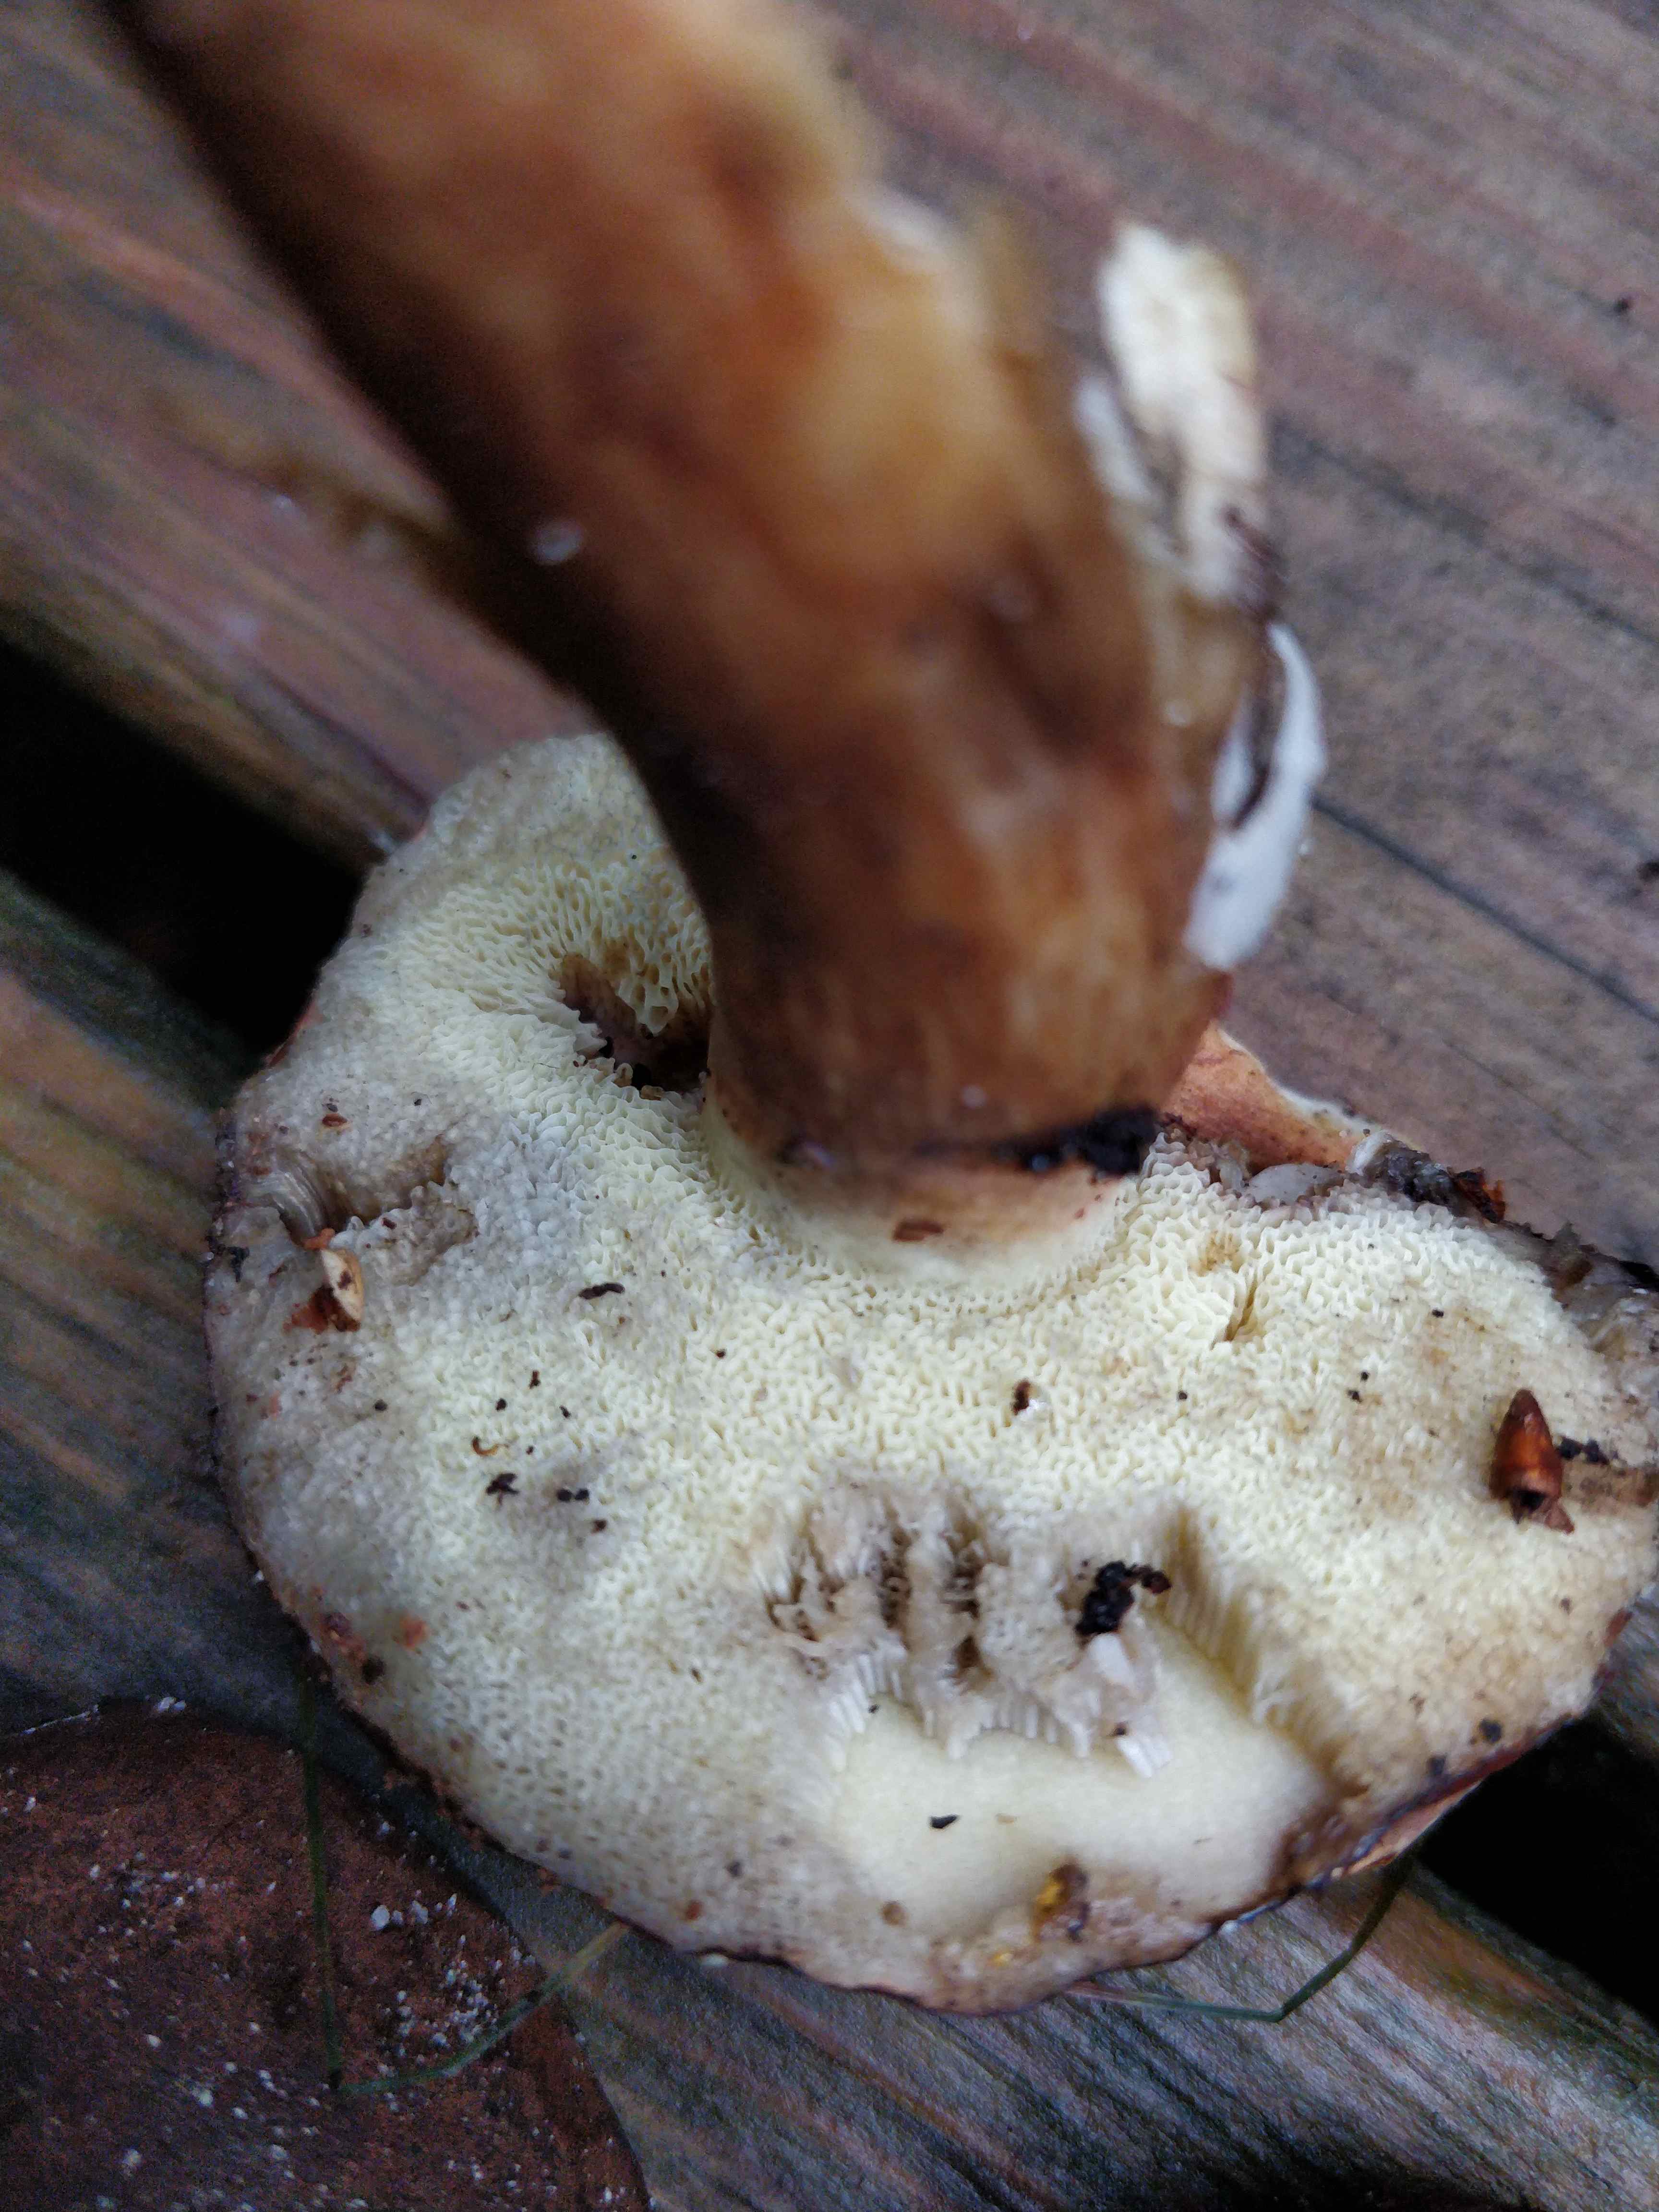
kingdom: Fungi
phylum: Basidiomycota
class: Agaricomycetes
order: Boletales
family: Boletaceae
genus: Imleria
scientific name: Imleria badia
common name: brunstokket rørhat
